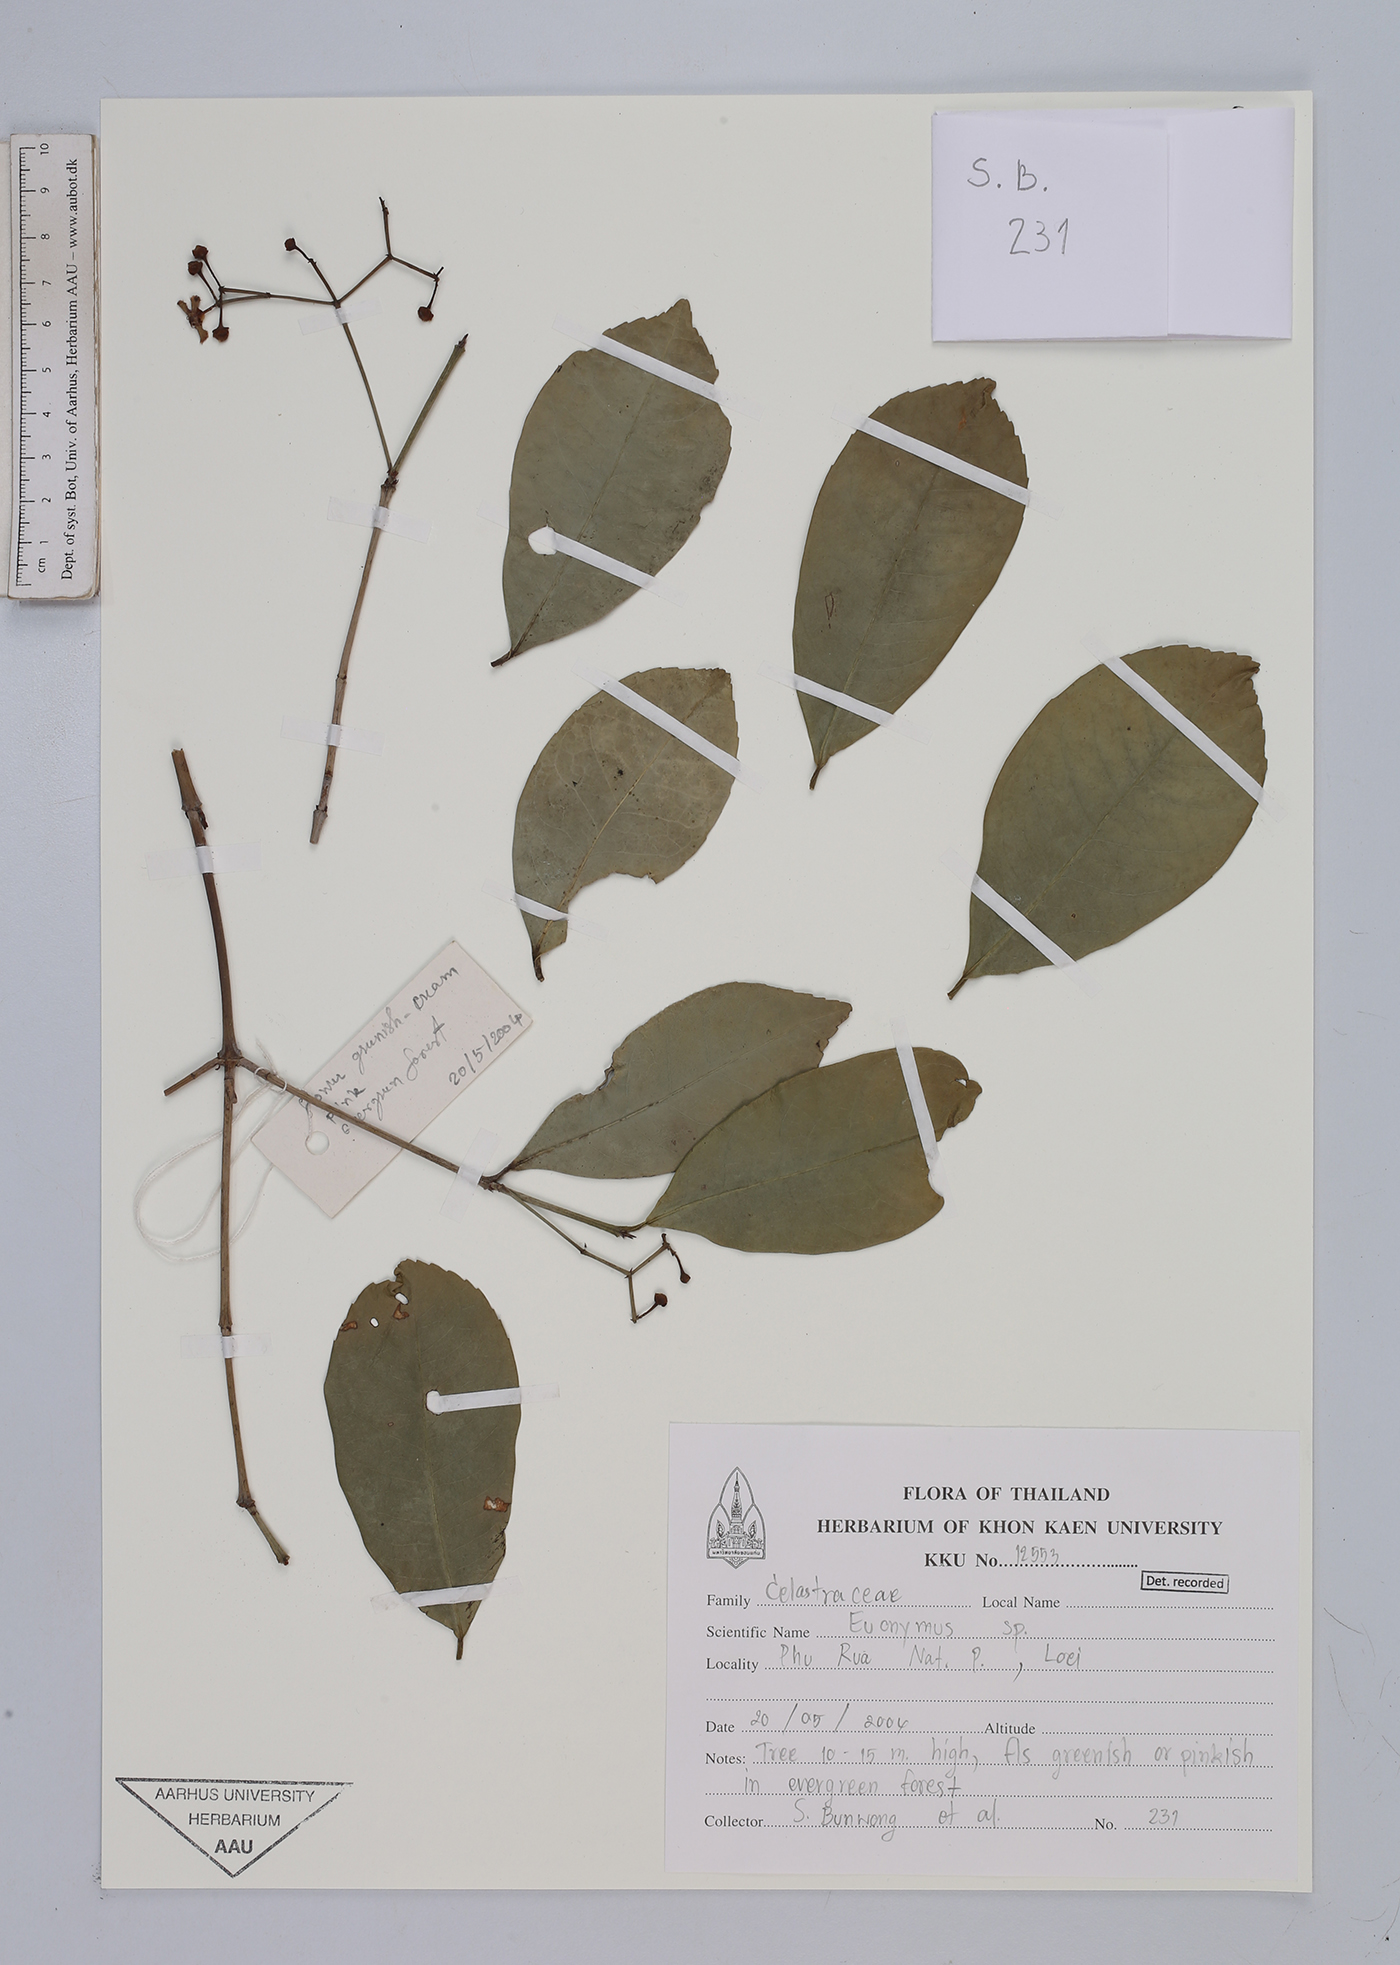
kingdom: Plantae
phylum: Tracheophyta
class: Magnoliopsida
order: Celastrales
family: Celastraceae
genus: Euonymus
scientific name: Euonymus
